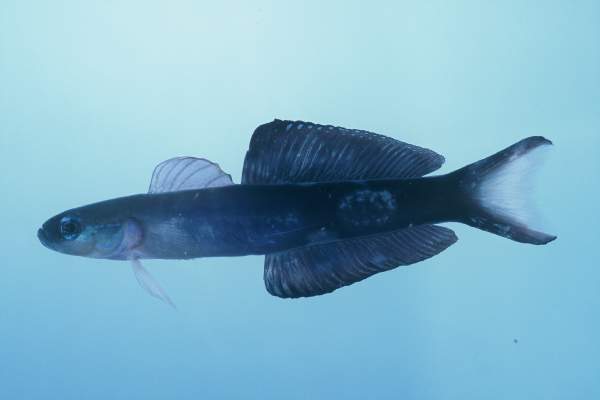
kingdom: Animalia
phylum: Chordata
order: Perciformes
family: Microdesmidae
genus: Ptereleotris
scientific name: Ptereleotris evides
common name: Blackfin dartfish
